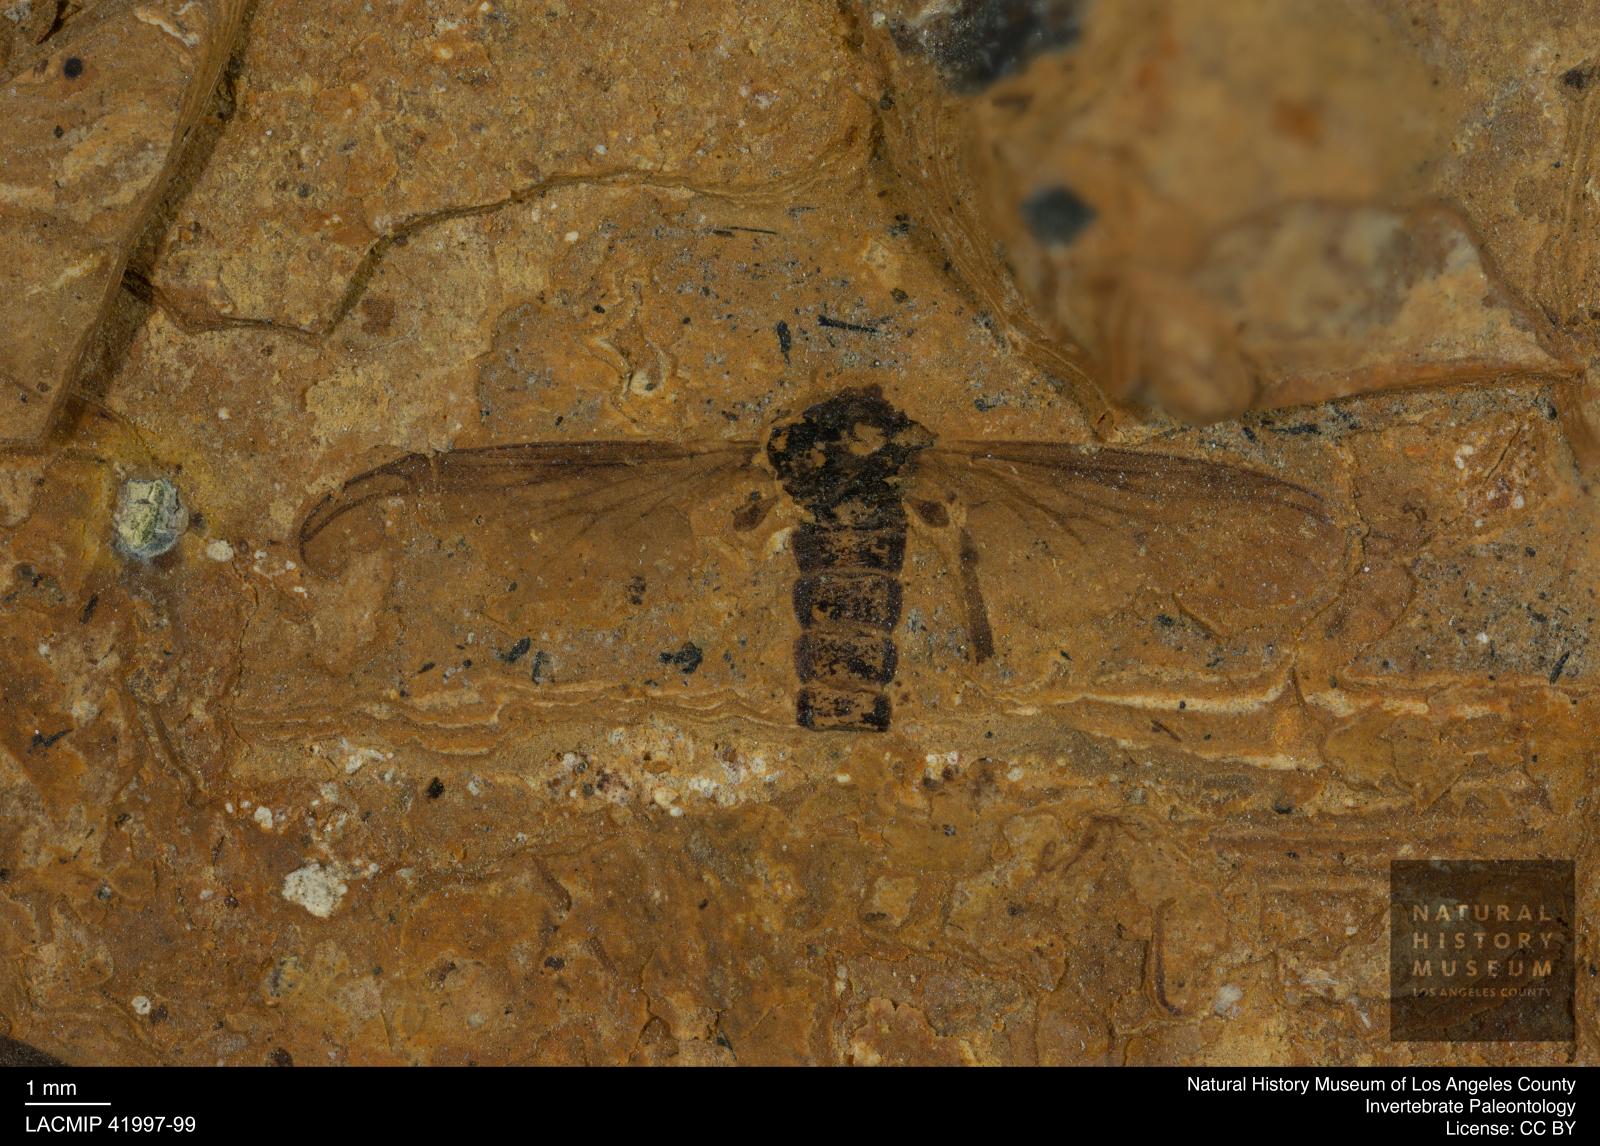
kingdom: Animalia
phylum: Arthropoda
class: Insecta
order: Diptera
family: Bibionidae
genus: Plecia
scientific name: Plecia hypogaea
